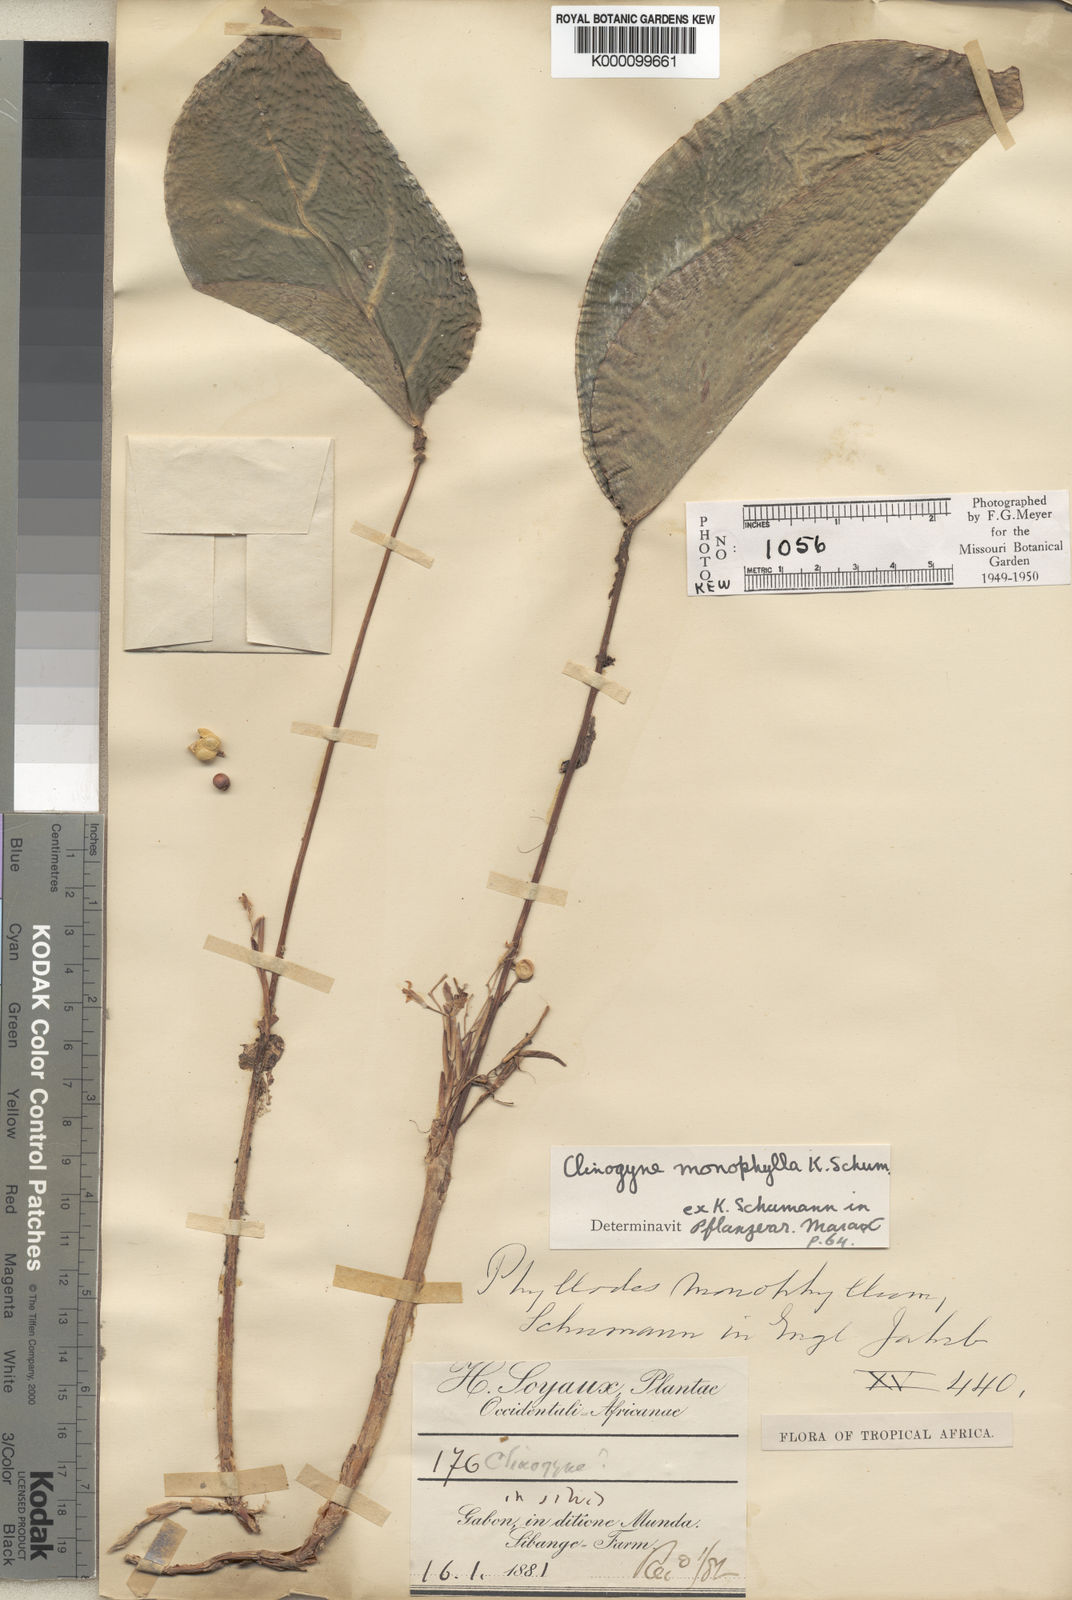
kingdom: Plantae
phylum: Tracheophyta
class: Liliopsida
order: Zingiberales
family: Marantaceae
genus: Marantochloa
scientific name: Marantochloa monophylla
